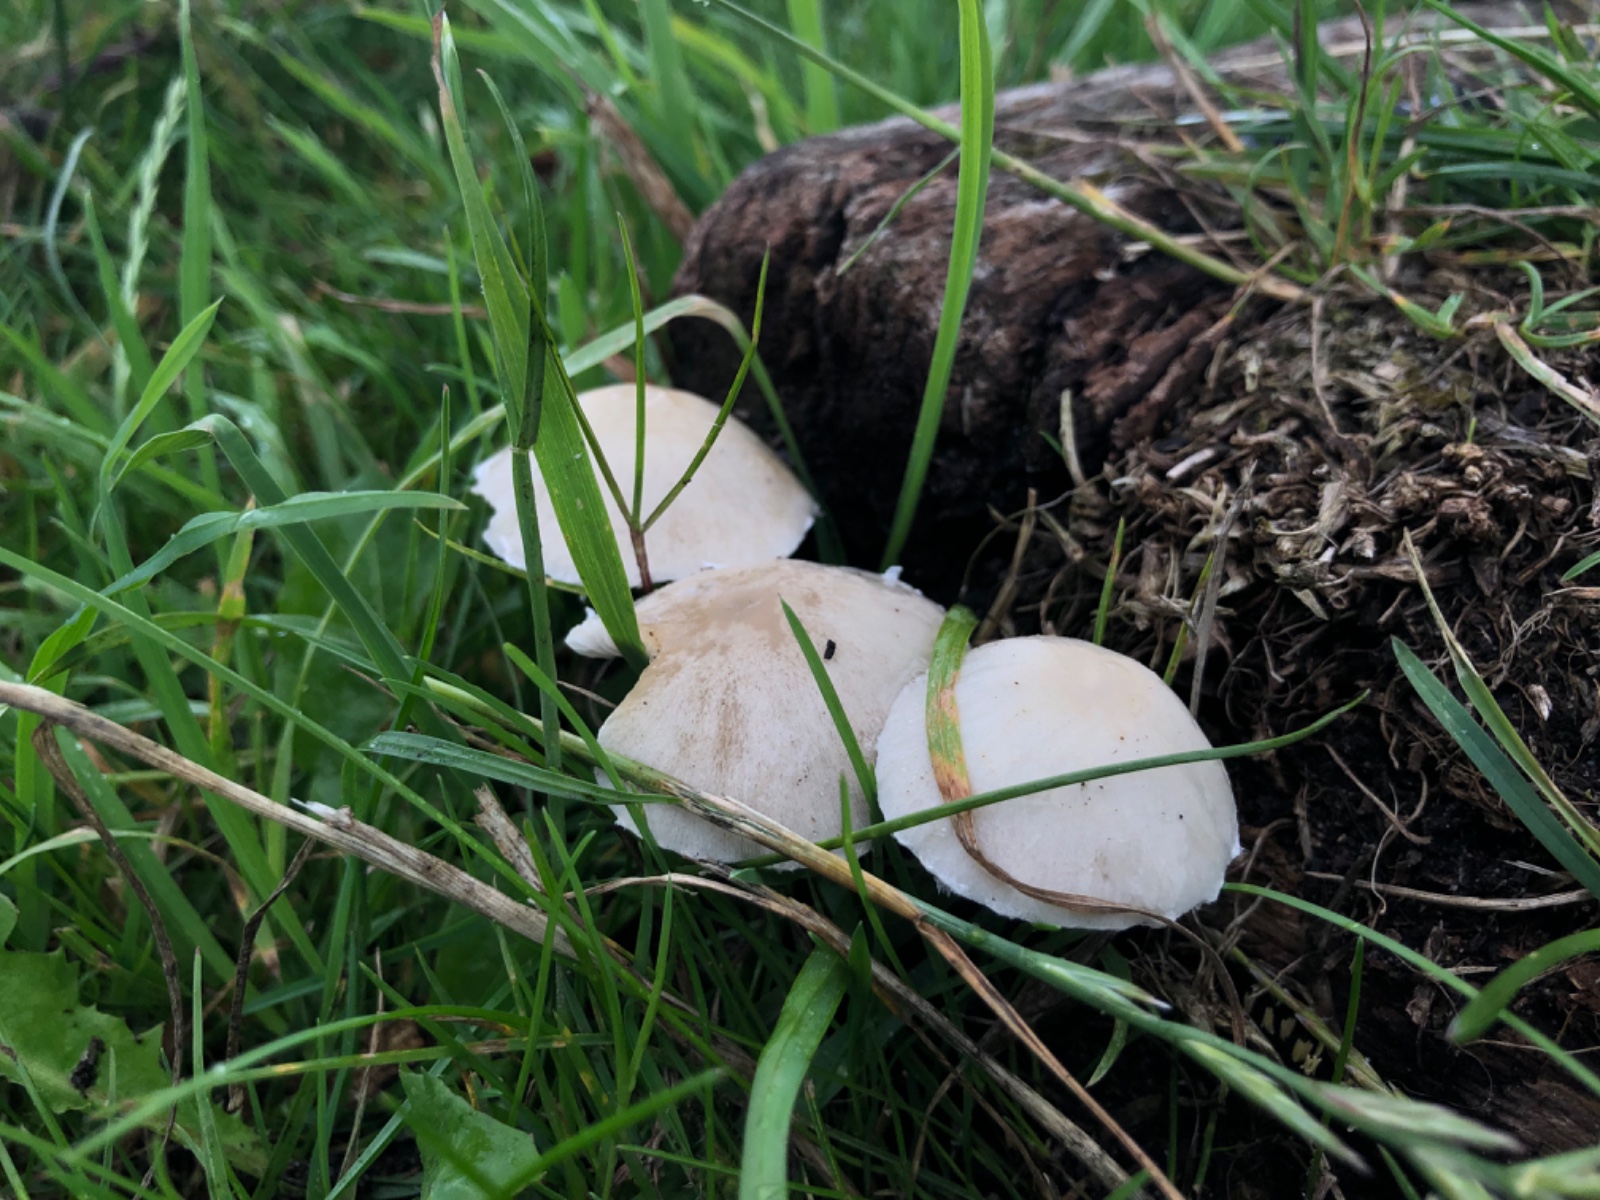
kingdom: Fungi
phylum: Basidiomycota
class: Agaricomycetes
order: Agaricales
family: Psathyrellaceae
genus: Candolleomyces
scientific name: Candolleomyces candolleanus
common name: Candolles mørkhat
